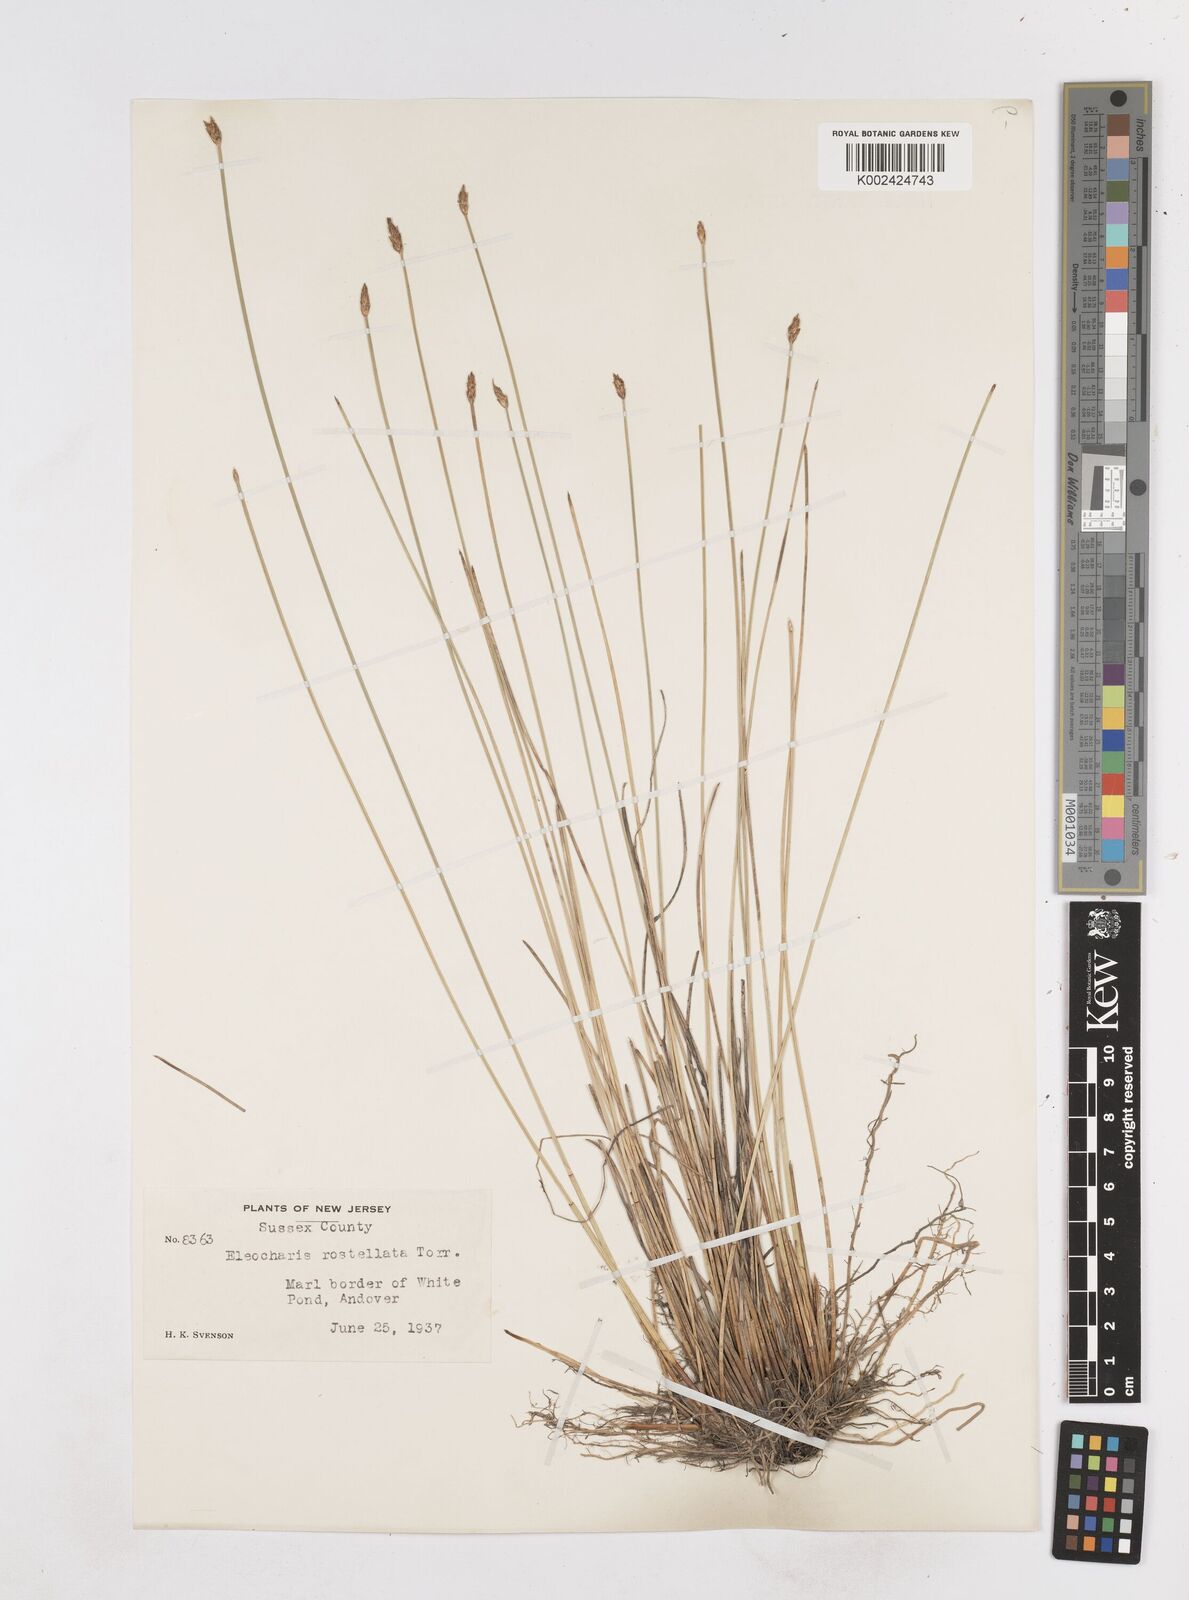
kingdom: Plantae
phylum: Tracheophyta
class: Liliopsida
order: Poales
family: Cyperaceae
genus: Eleocharis
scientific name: Eleocharis rostellata
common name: Walking sedge
